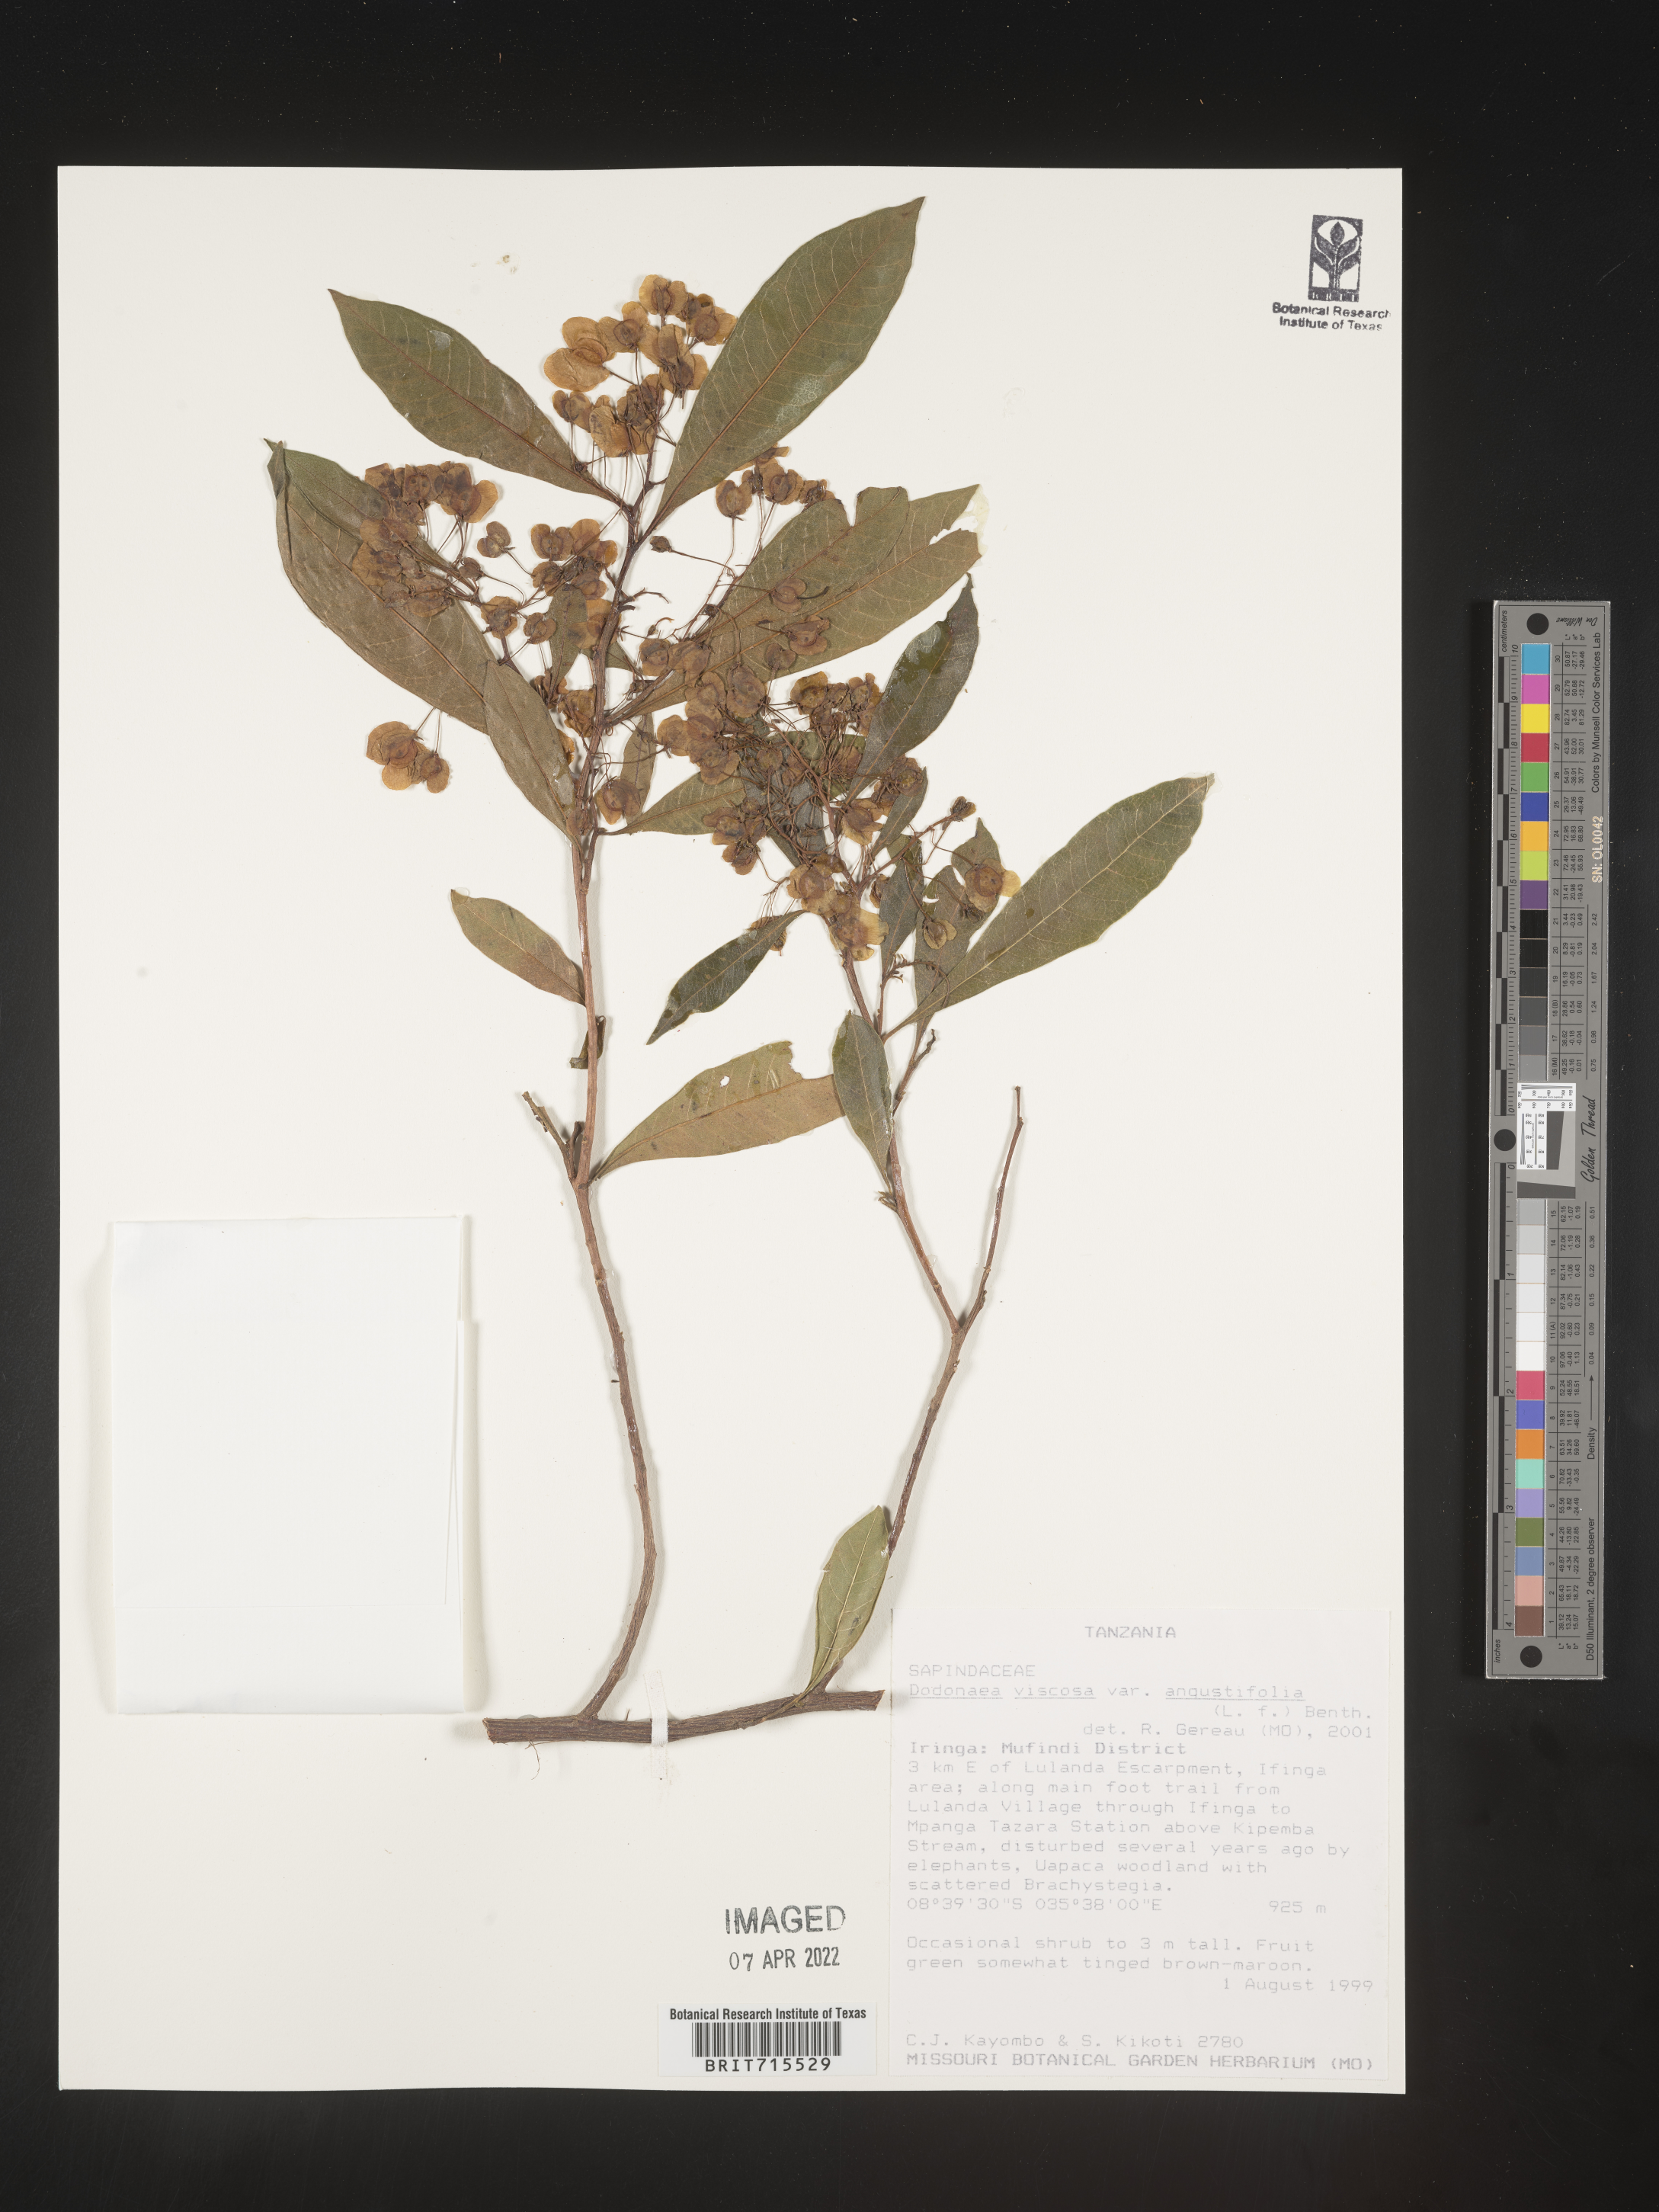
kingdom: Plantae
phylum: Tracheophyta
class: Magnoliopsida
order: Sapindales
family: Sapindaceae
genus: Dodonaea
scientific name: Dodonaea viscosa
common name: Hopbush
